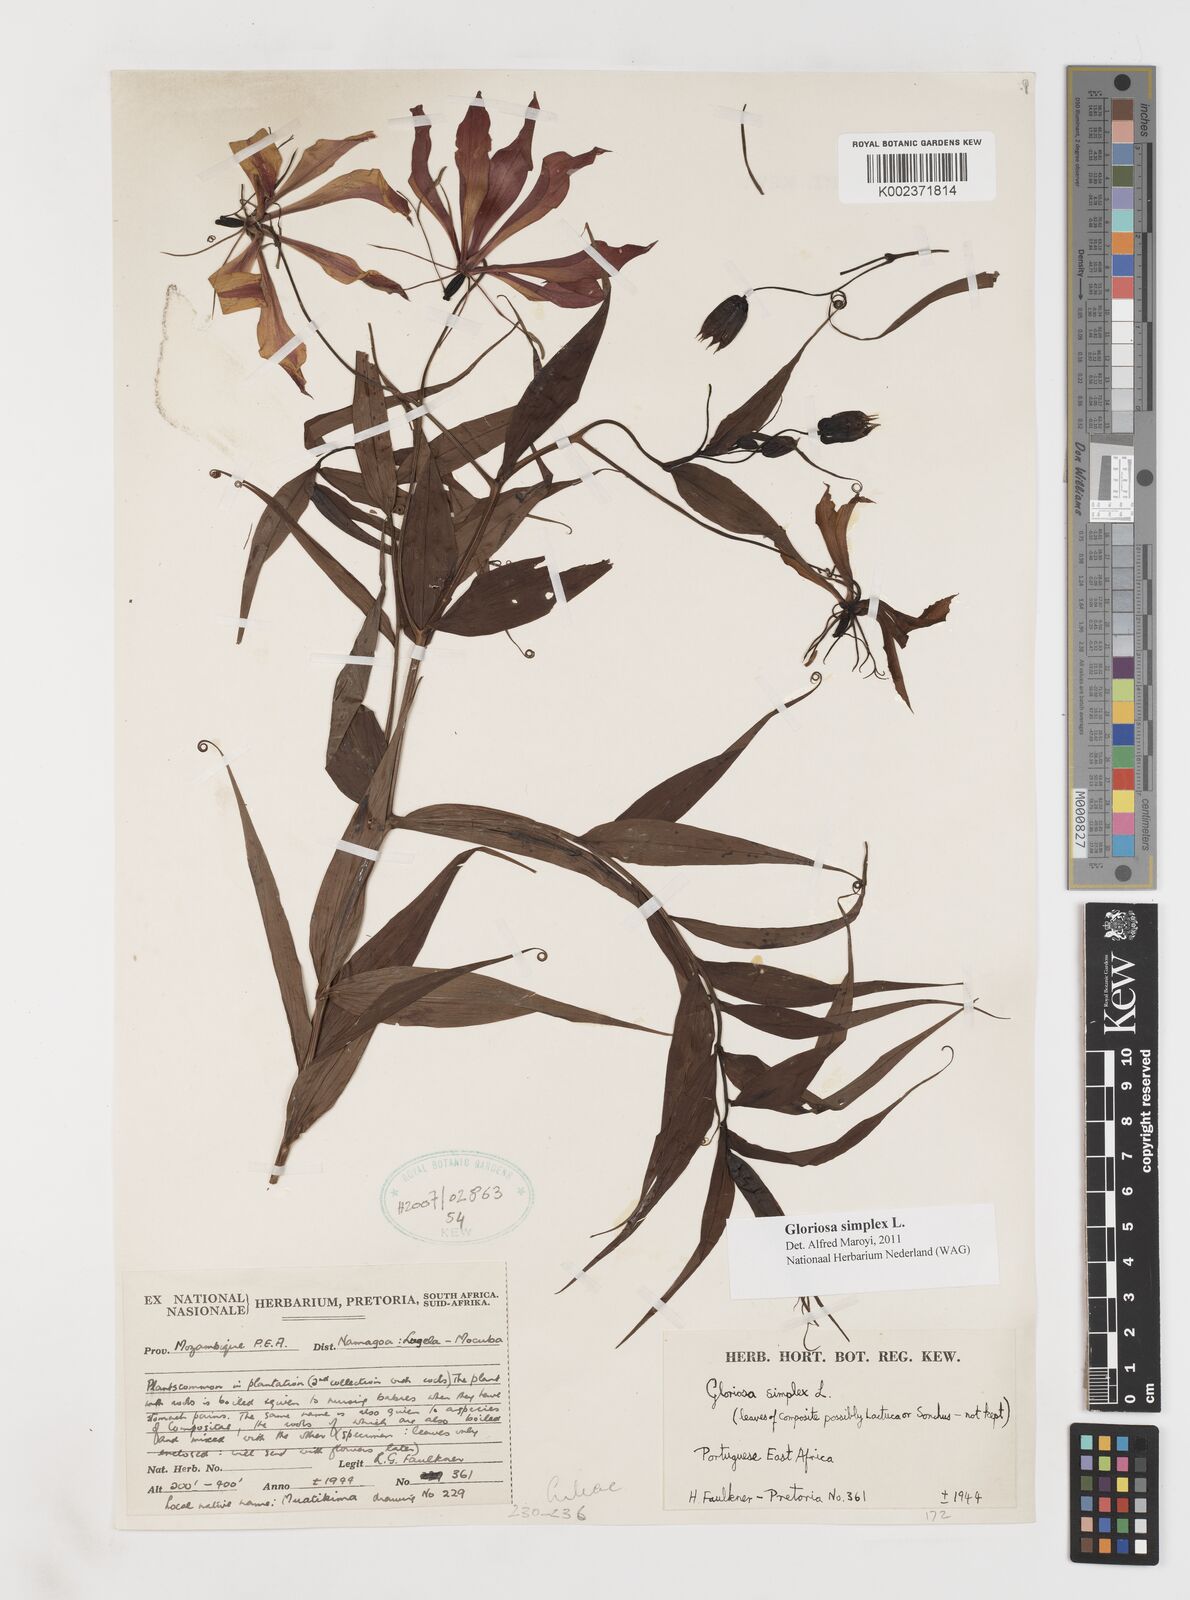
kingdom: Plantae
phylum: Tracheophyta
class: Liliopsida
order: Liliales
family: Colchicaceae
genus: Gloriosa
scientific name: Gloriosa simplex
